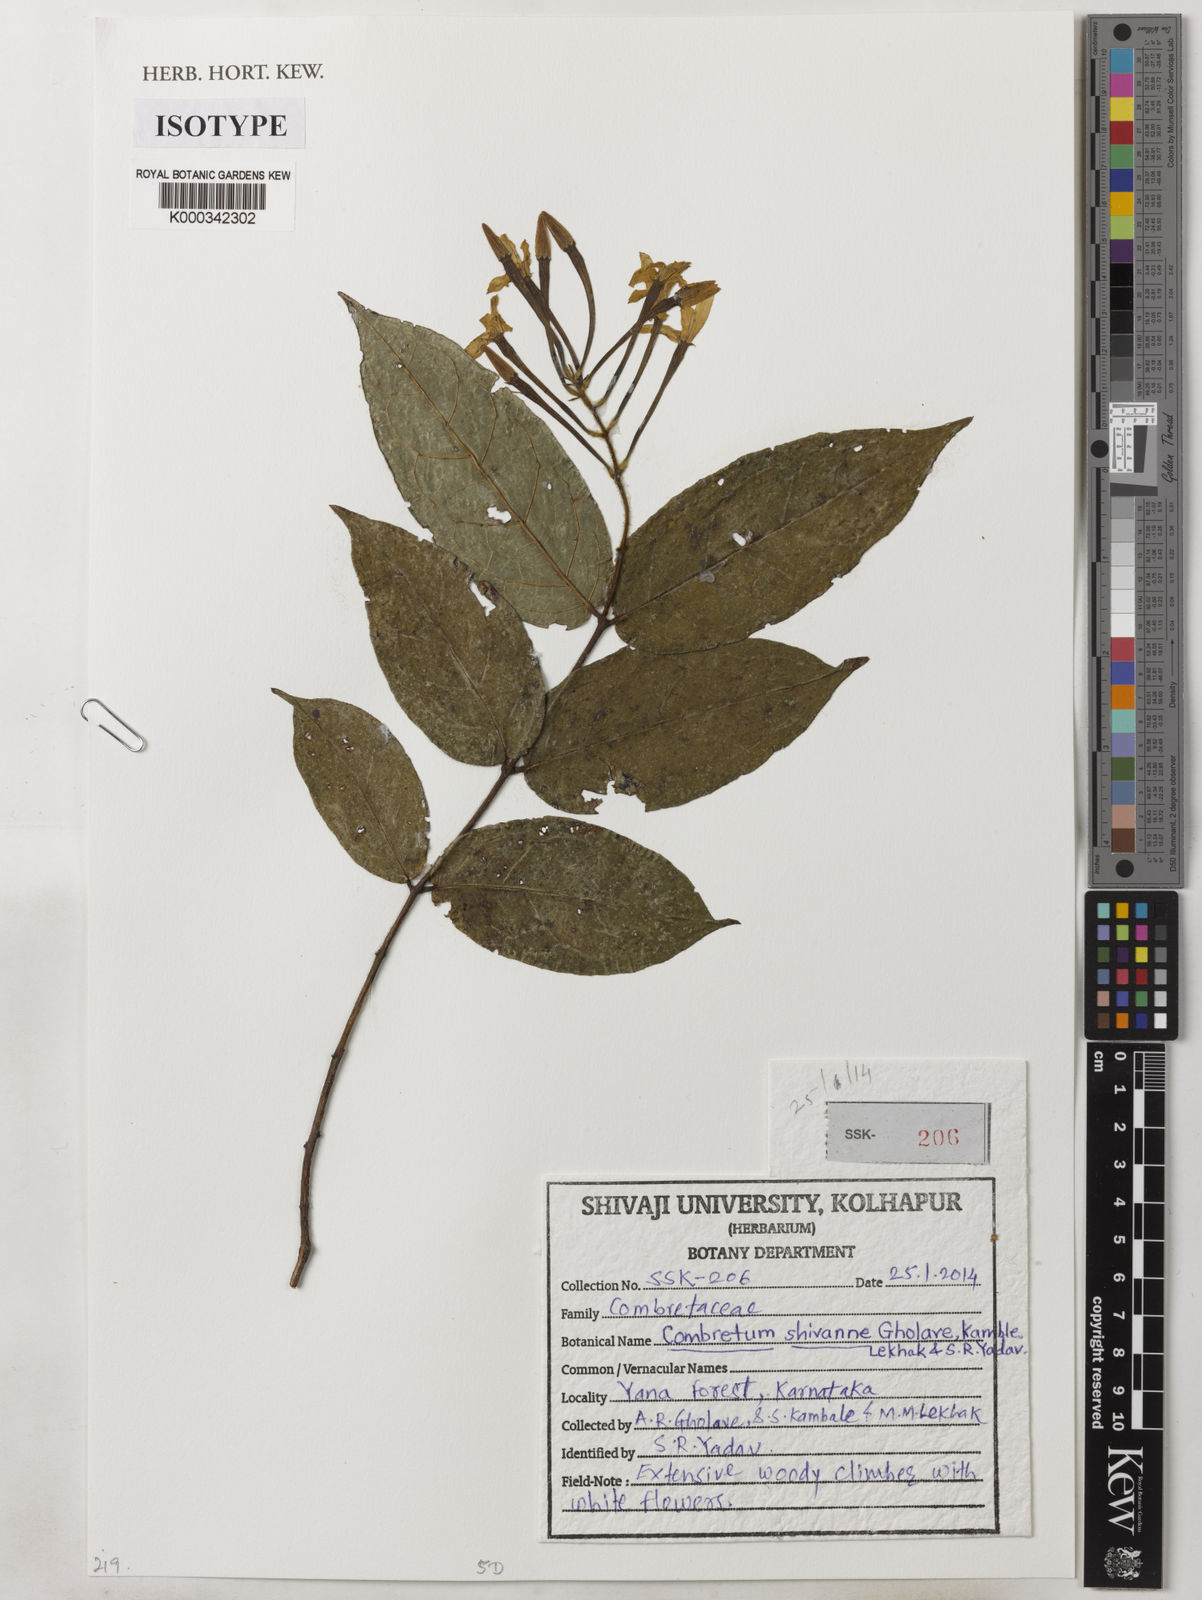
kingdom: Plantae
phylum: Tracheophyta
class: Magnoliopsida
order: Myrtales
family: Combretaceae
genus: Combretum
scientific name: Combretum shivannae
